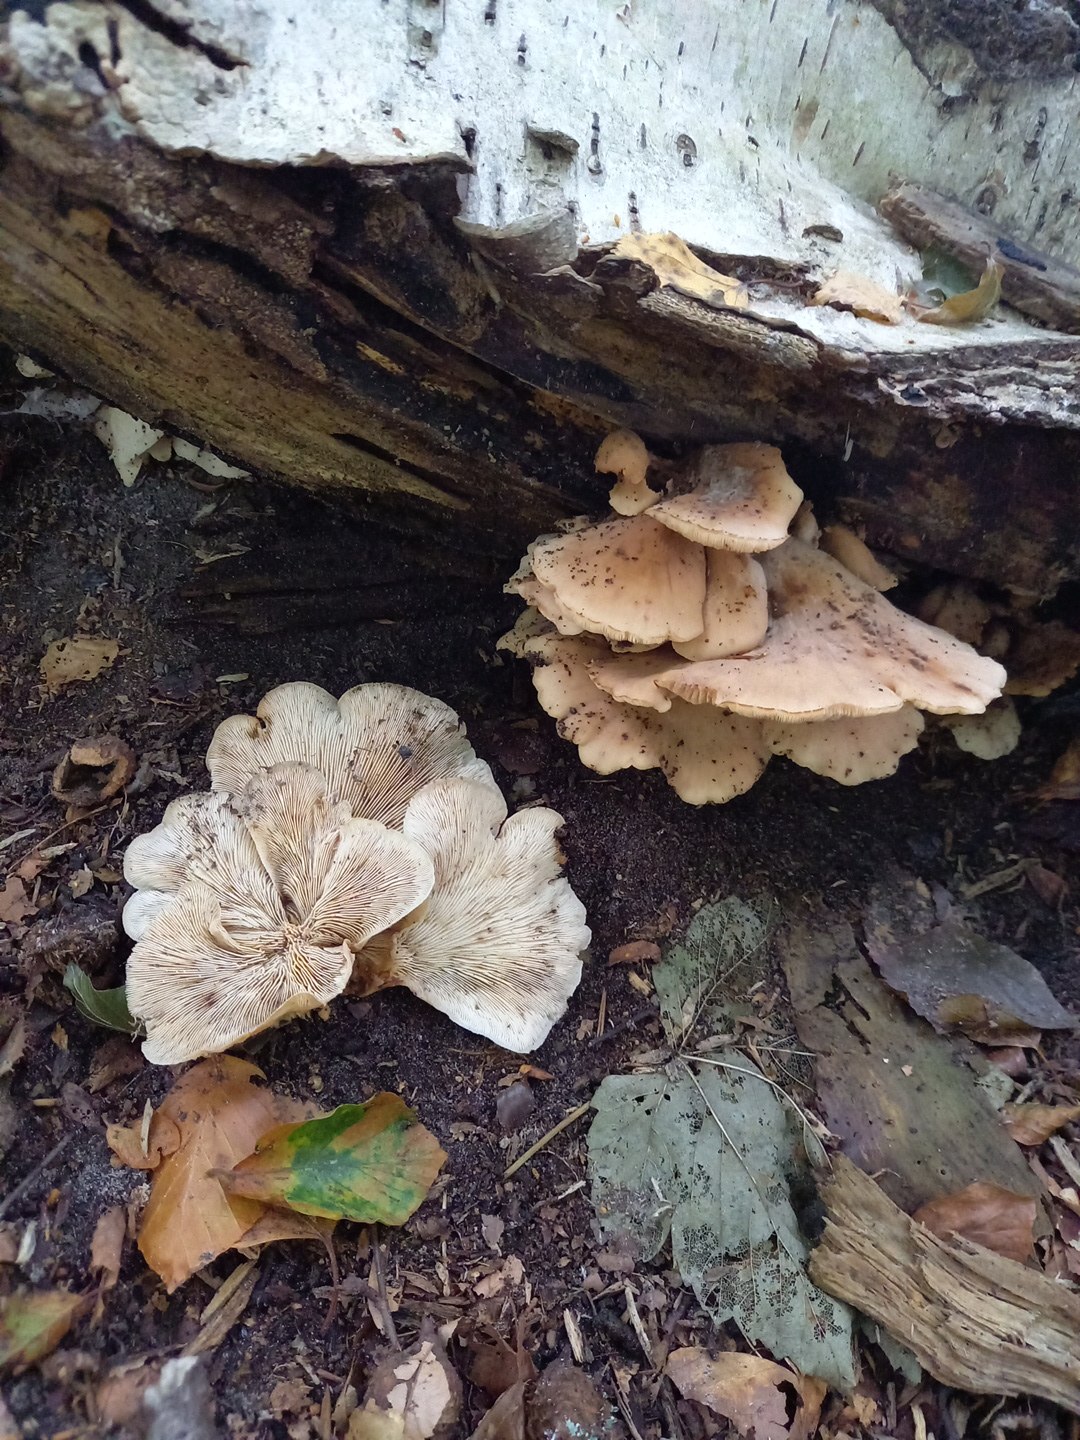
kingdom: Fungi
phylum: Basidiomycota
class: Agaricomycetes
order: Russulales
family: Auriscalpiaceae
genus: Lentinellus
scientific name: Lentinellus ursinus
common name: børstehåret savbladhat
